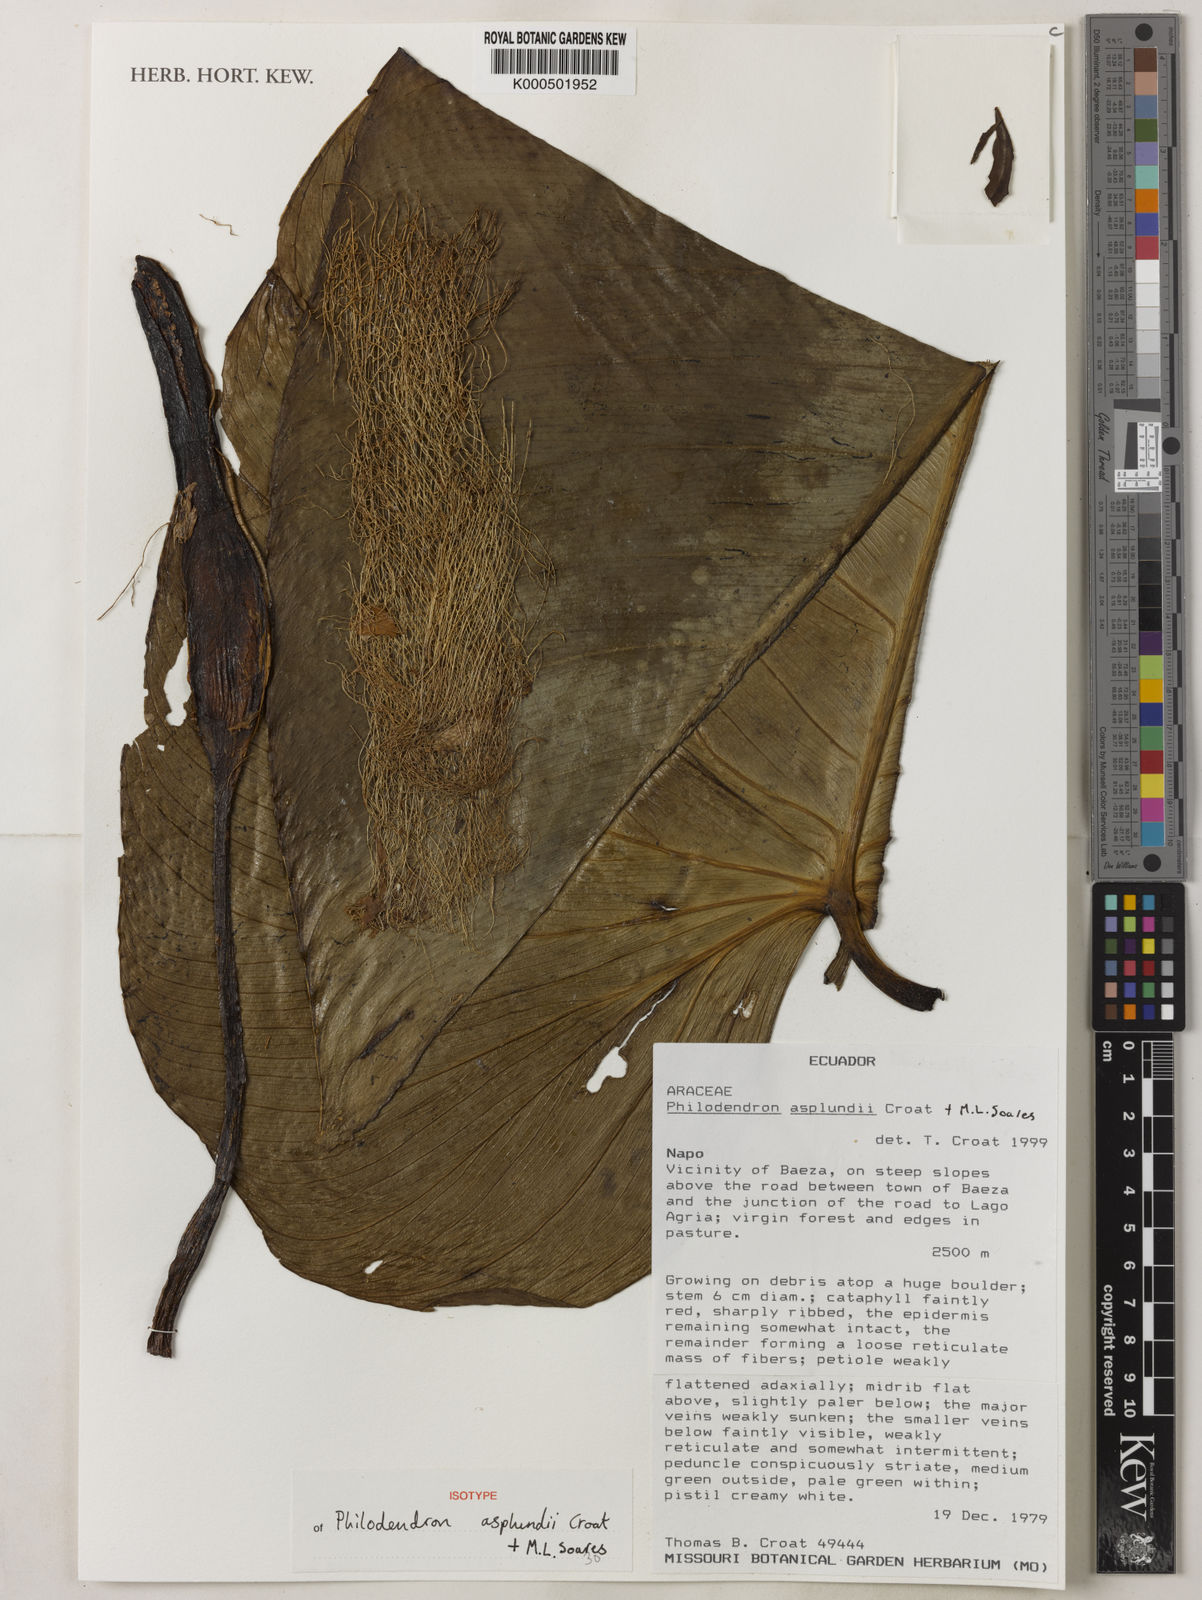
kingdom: Plantae
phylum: Tracheophyta
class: Liliopsida
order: Alismatales
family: Araceae
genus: Philodendron
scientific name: Philodendron asplundii
